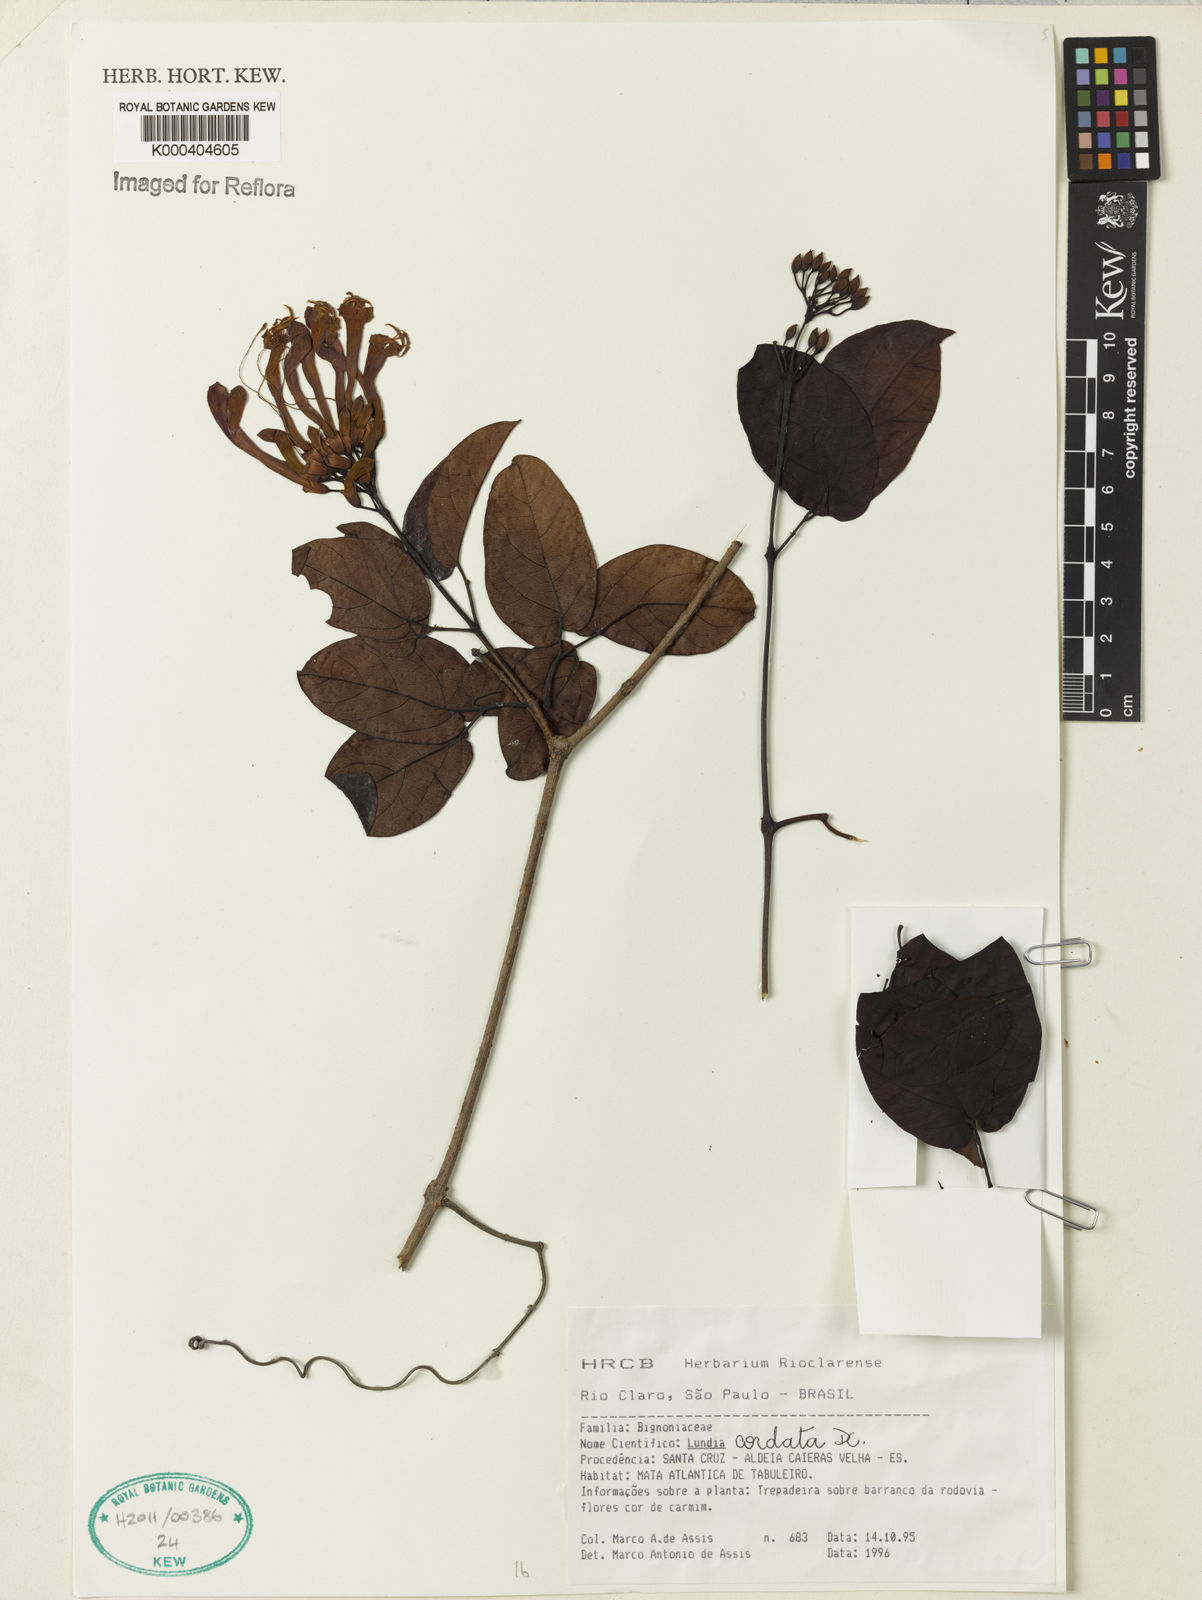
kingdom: Plantae
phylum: Tracheophyta
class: Magnoliopsida
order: Lamiales
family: Bignoniaceae
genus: Lundia
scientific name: Lundia corymbifera
